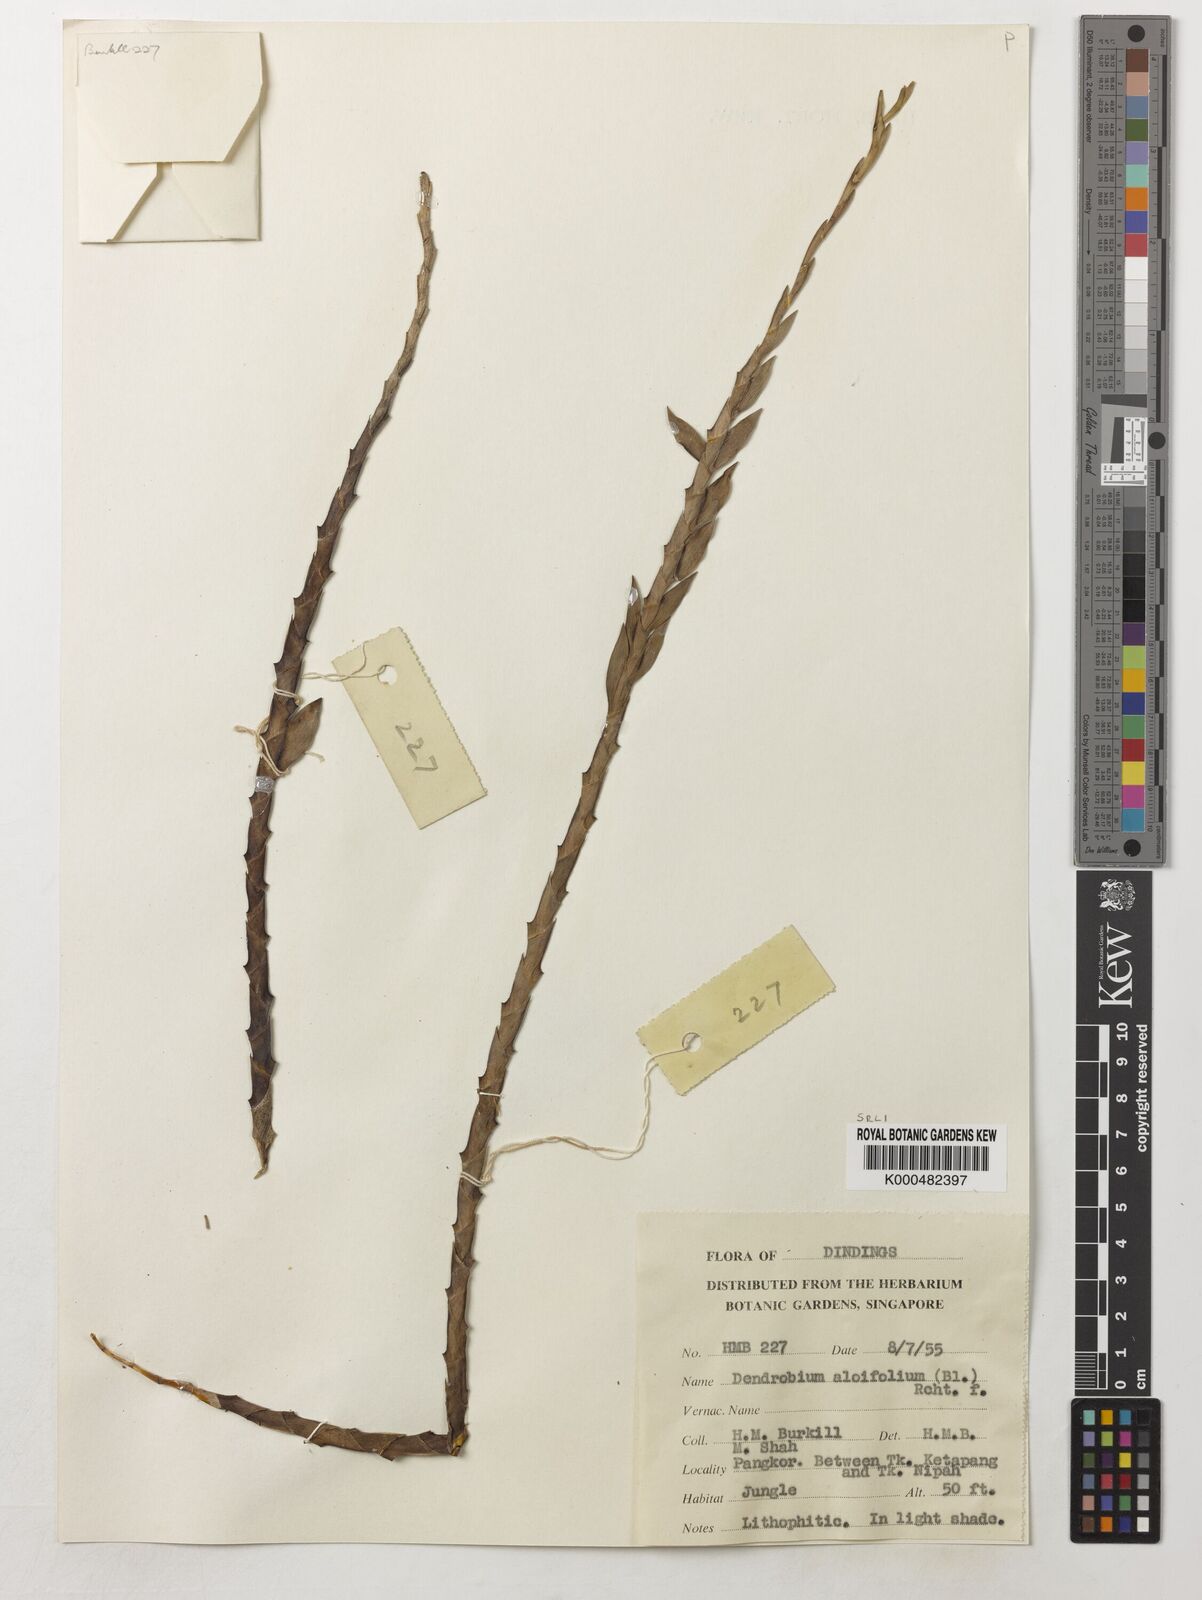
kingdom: Plantae
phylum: Tracheophyta
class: Liliopsida
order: Asparagales
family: Orchidaceae
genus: Dendrobium
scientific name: Dendrobium aloifolium
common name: Aloe-like dendrobium
